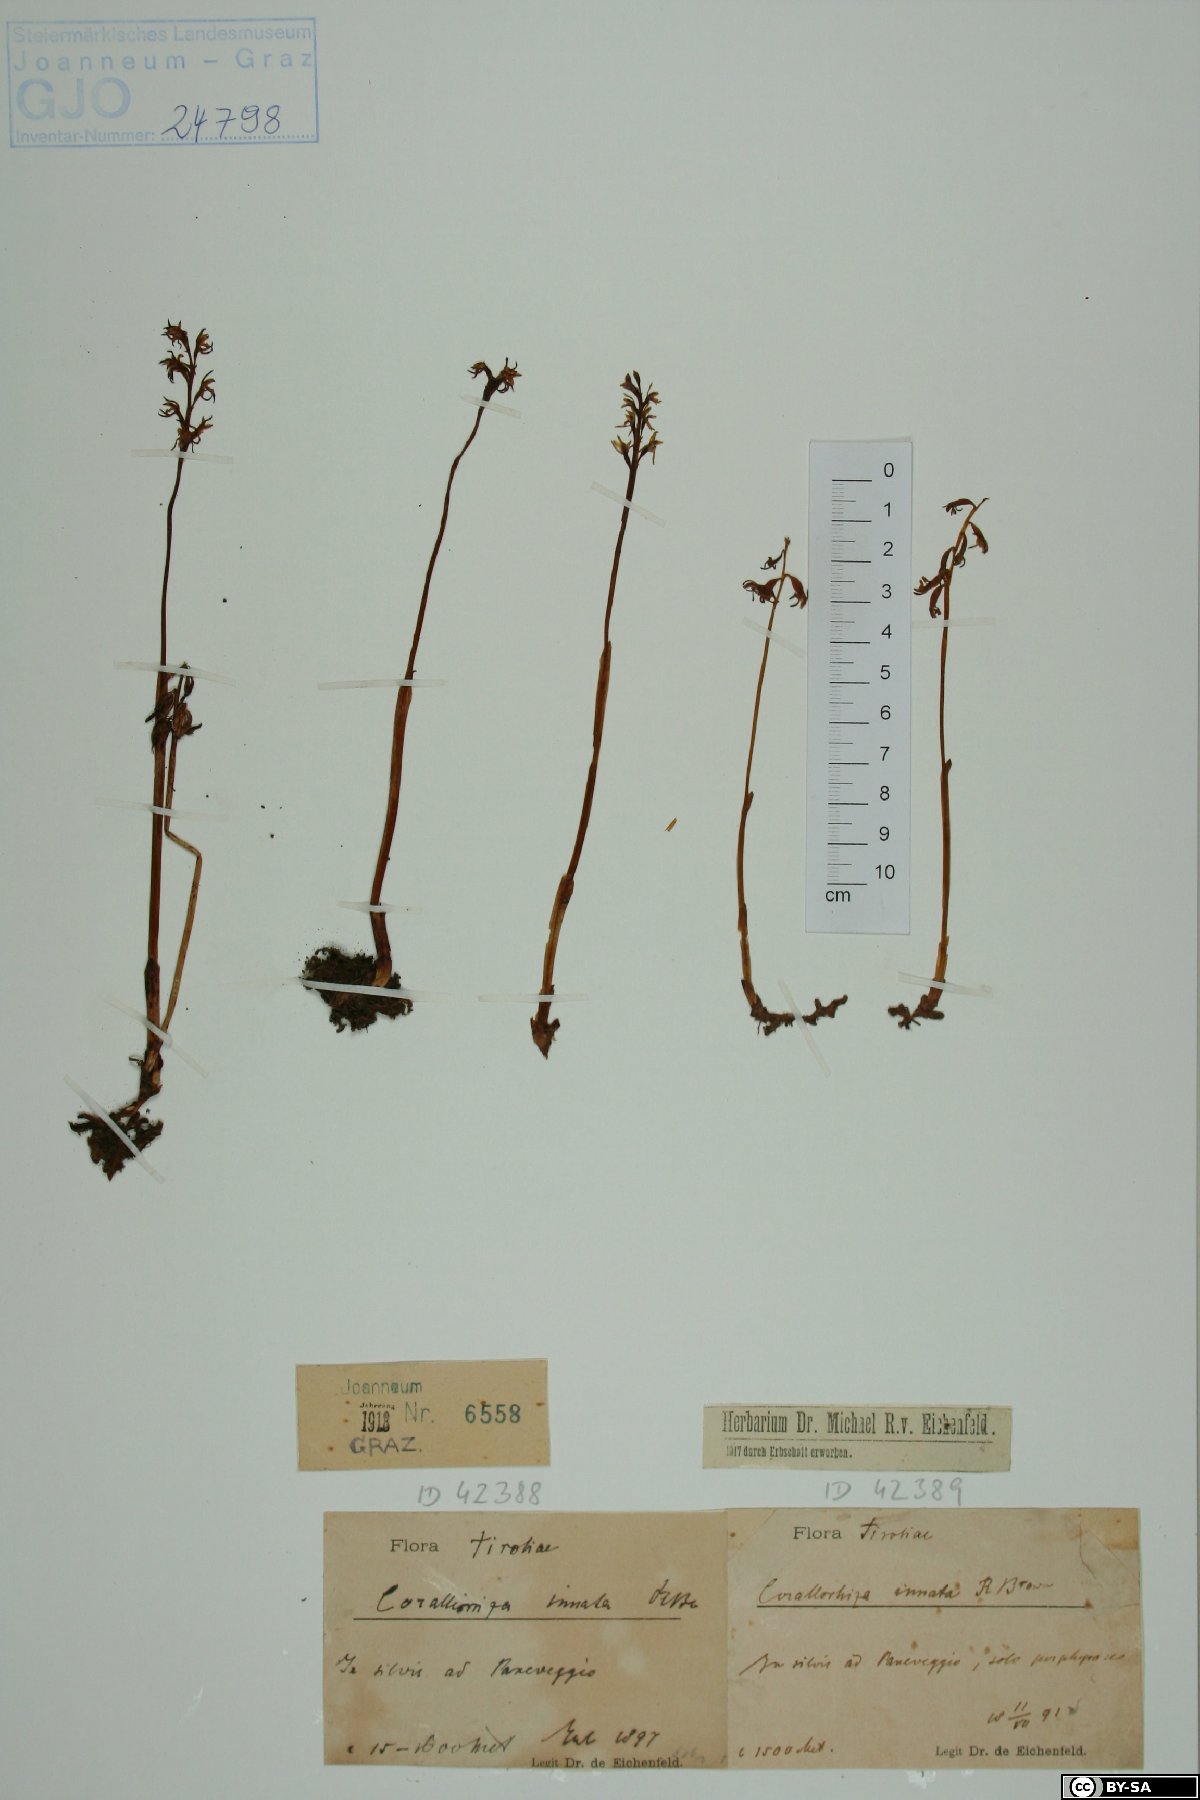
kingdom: Plantae
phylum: Tracheophyta
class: Liliopsida
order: Asparagales
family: Orchidaceae
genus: Corallorhiza
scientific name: Corallorhiza trifida
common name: Yellow coralroot
